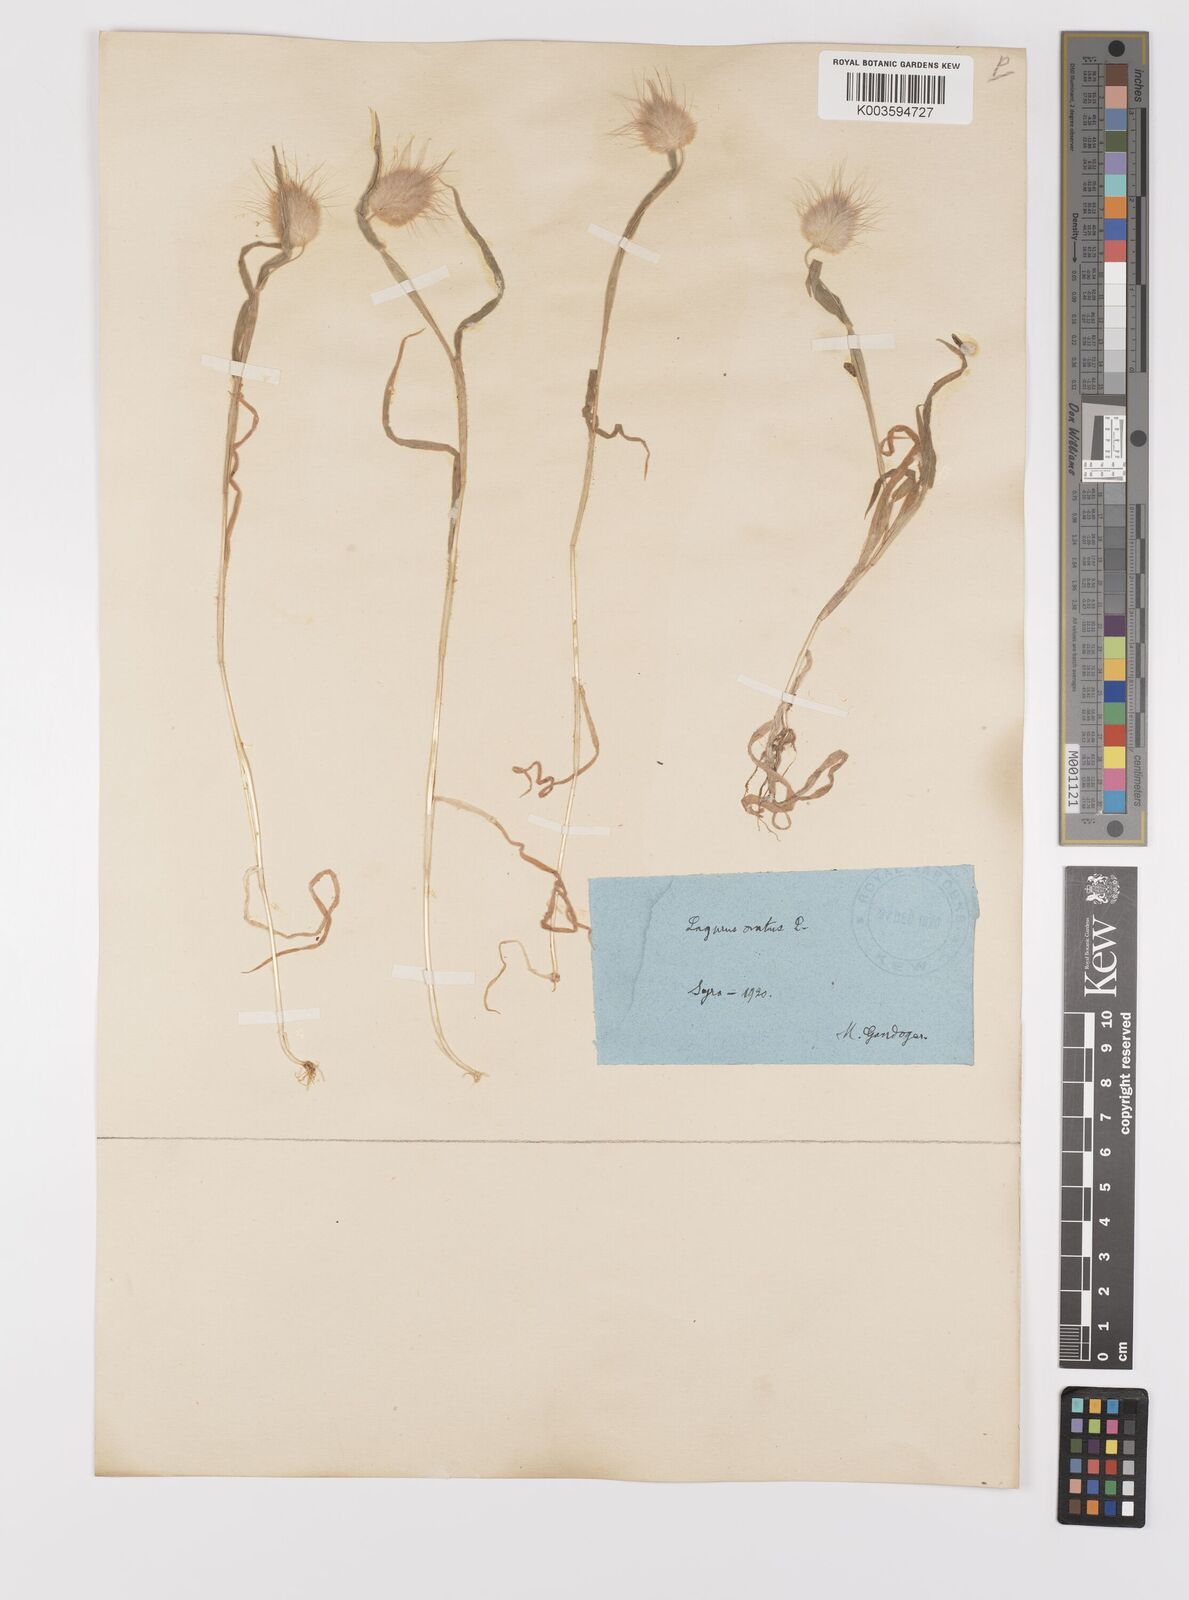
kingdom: Plantae
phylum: Tracheophyta
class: Liliopsida
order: Poales
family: Poaceae
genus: Lagurus
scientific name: Lagurus ovatus
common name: Hare's-tail
